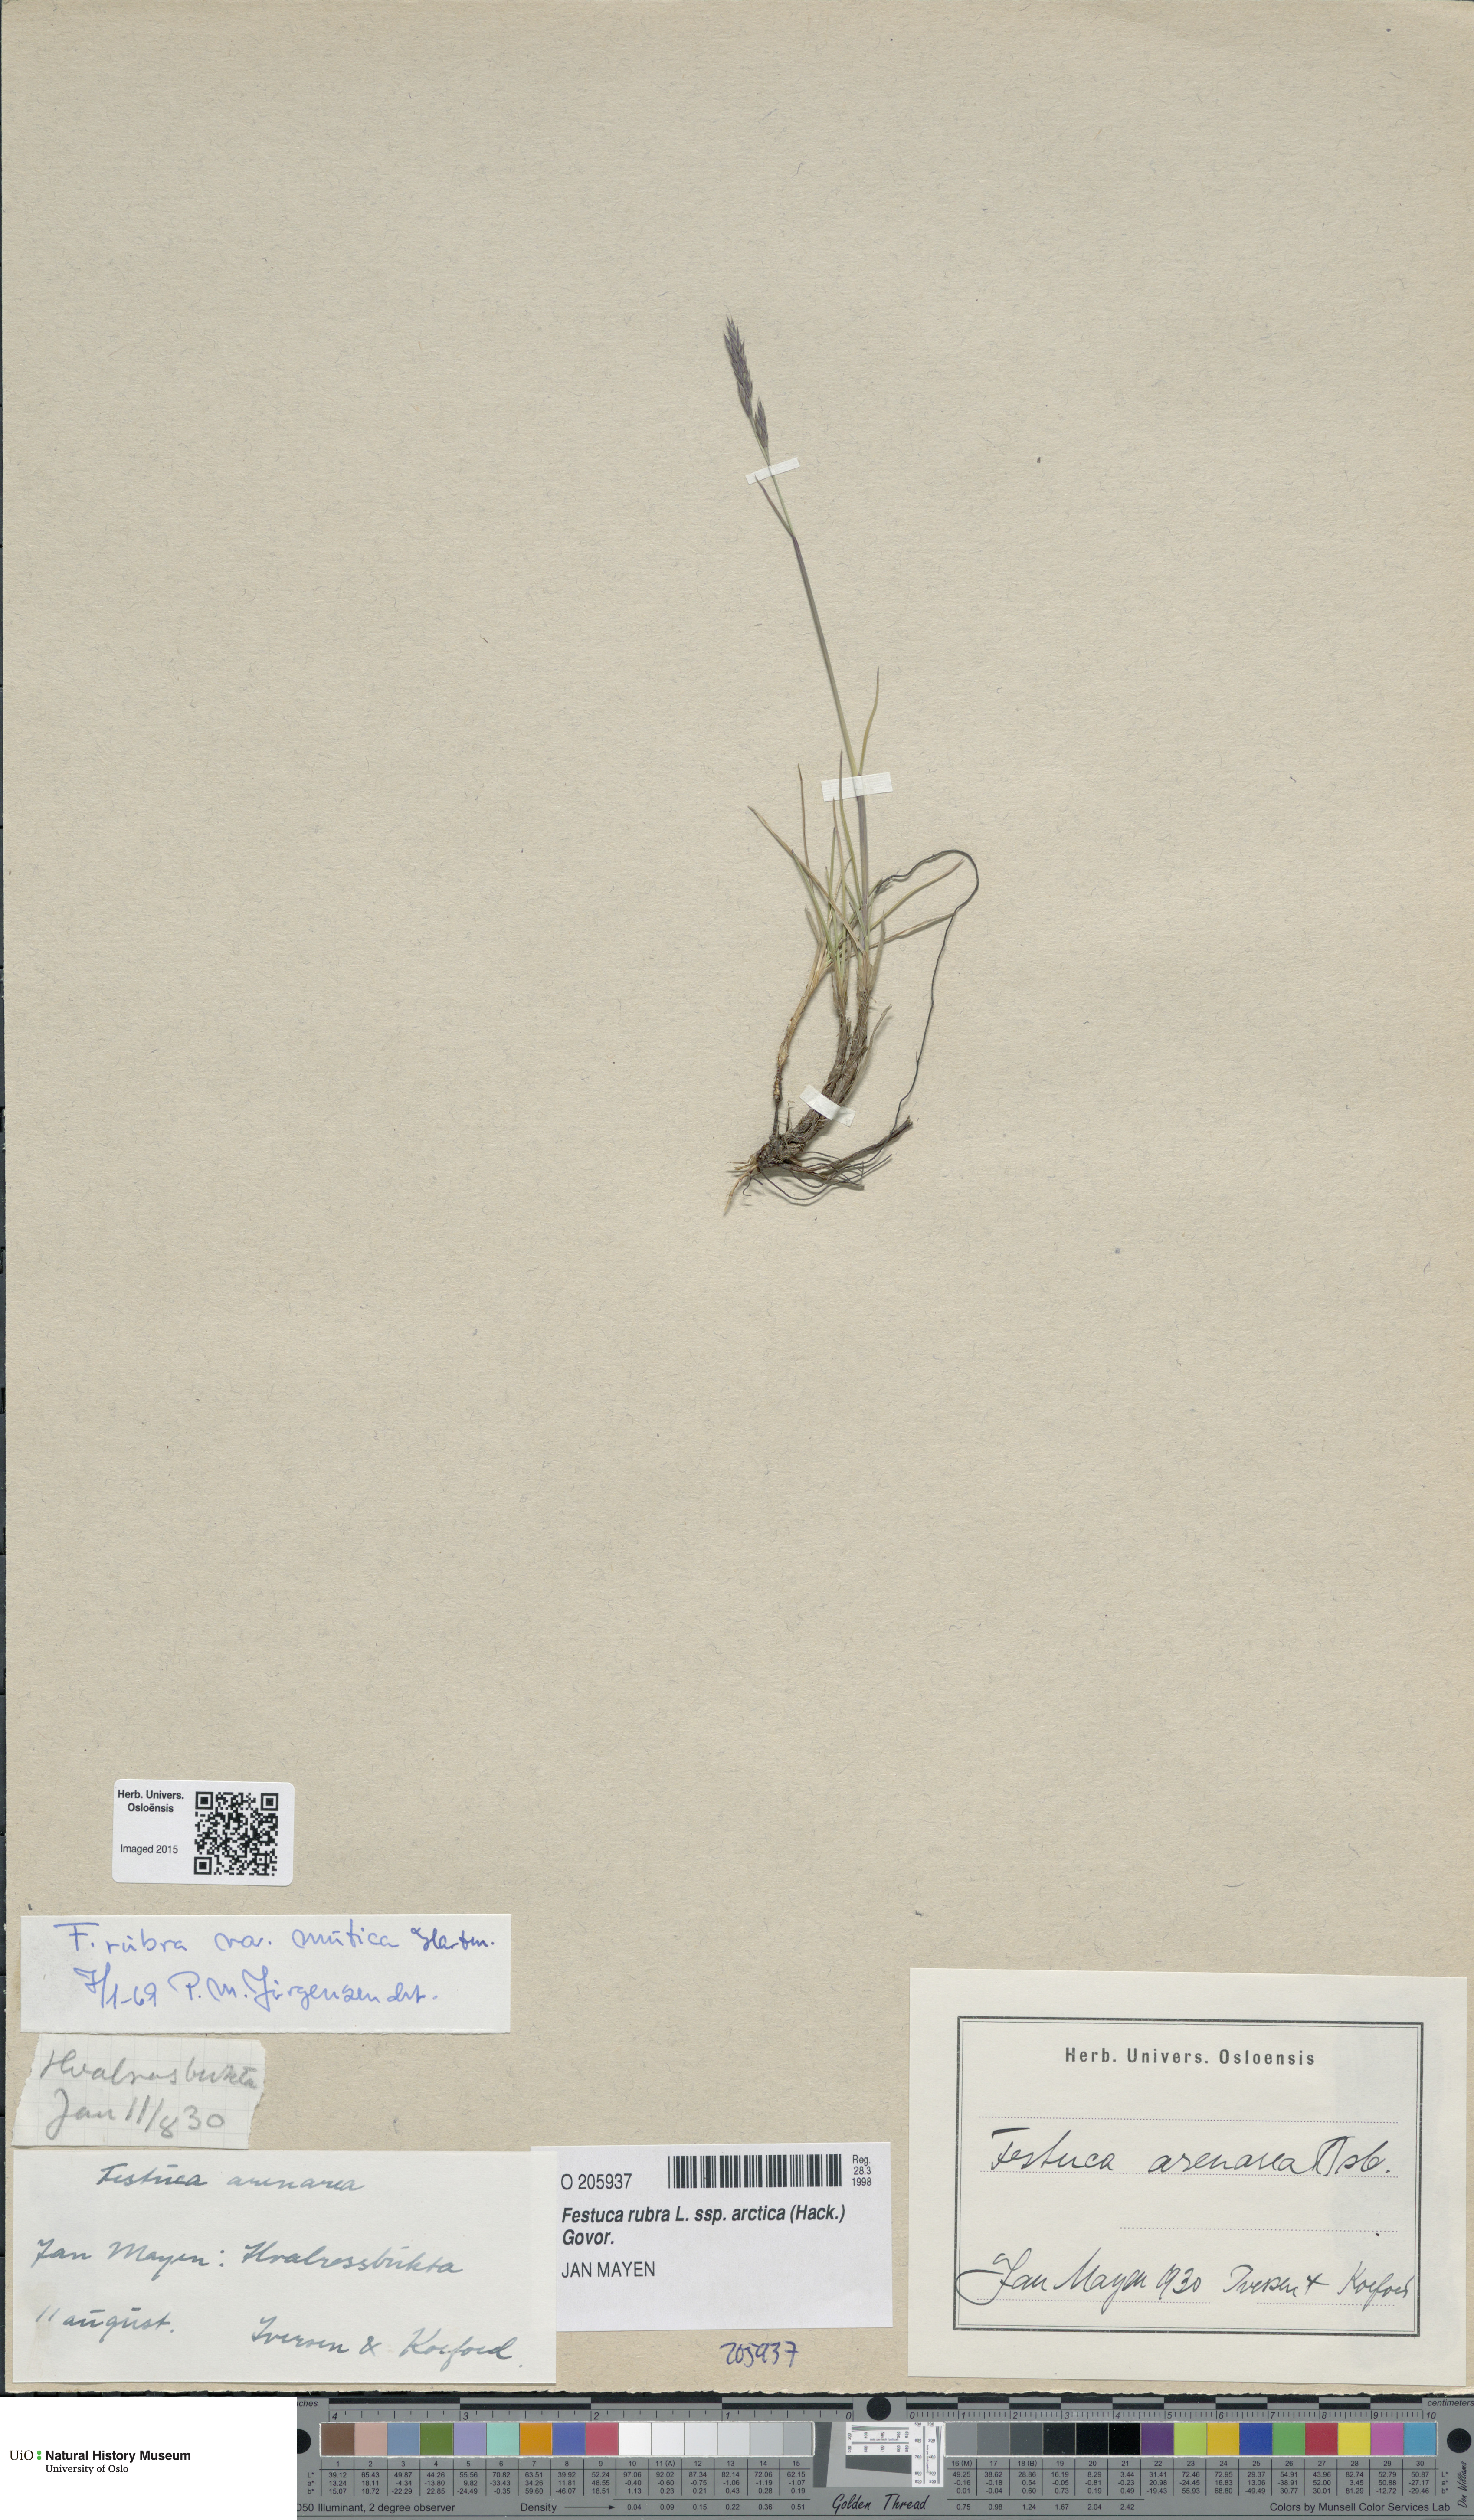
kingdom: Plantae
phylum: Tracheophyta
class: Liliopsida
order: Poales
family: Poaceae
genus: Festuca
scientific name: Festuca richardsonii
